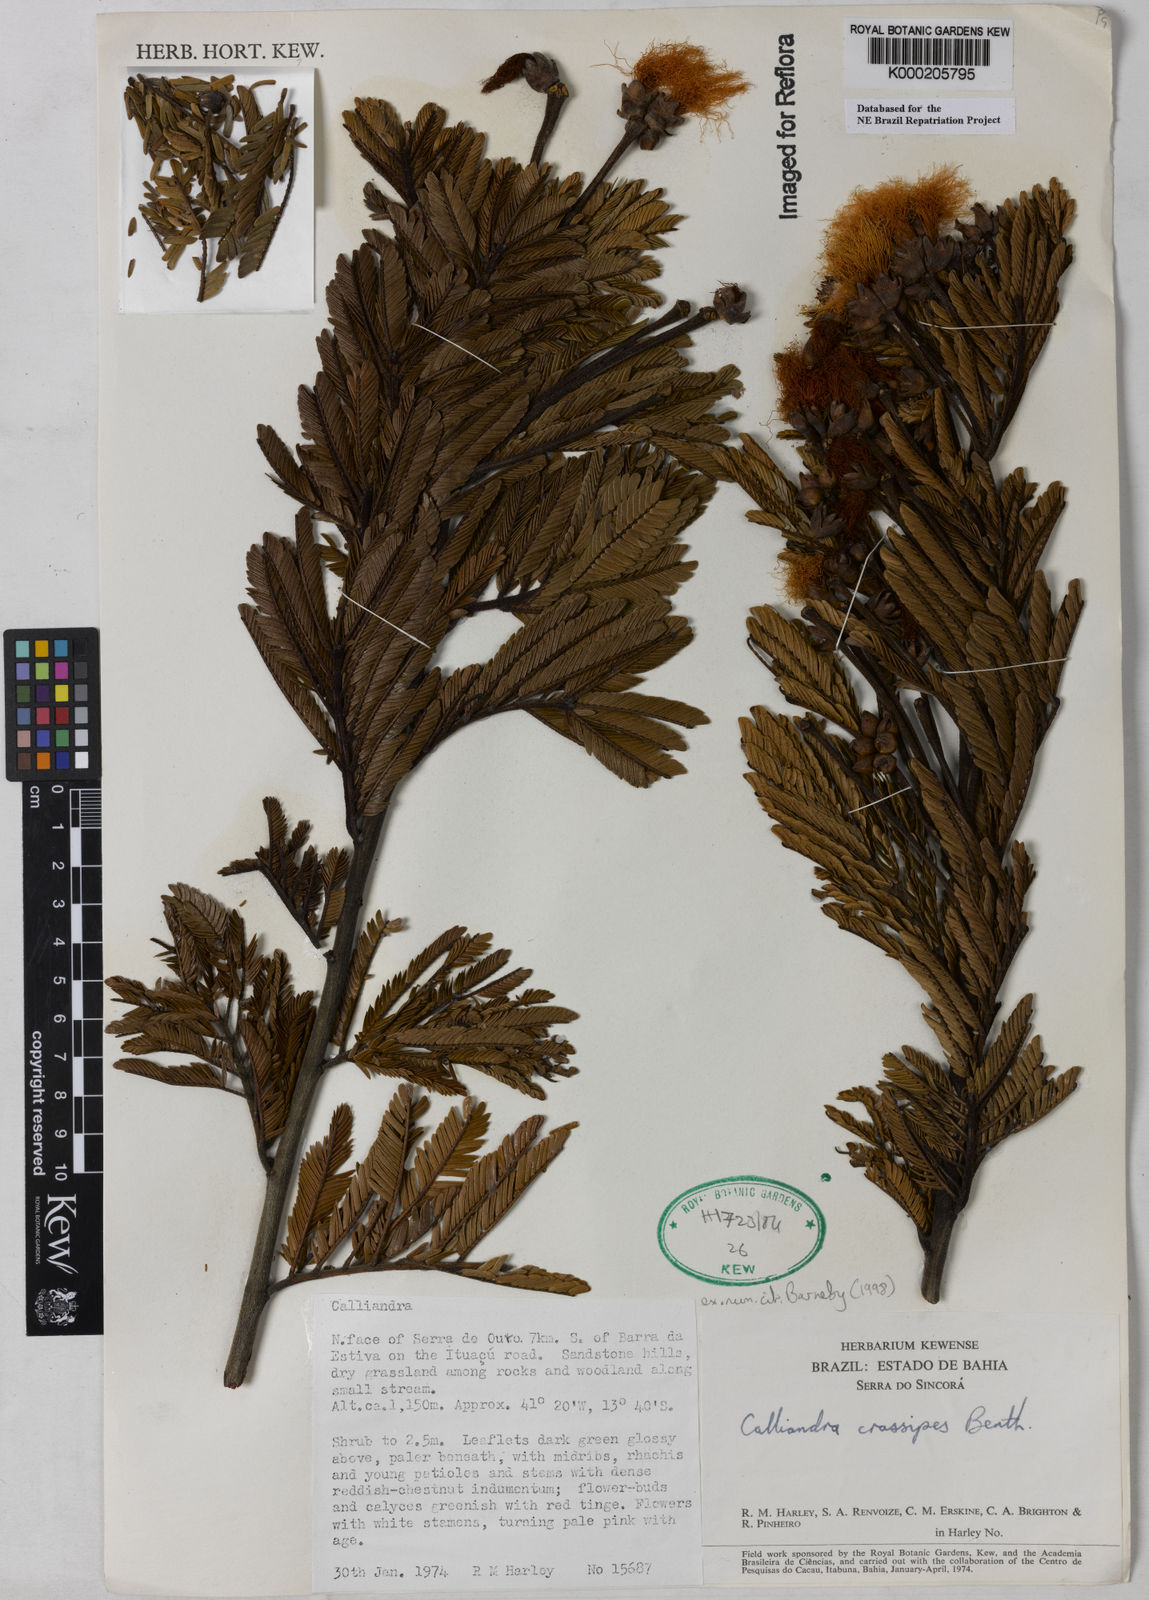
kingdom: Plantae
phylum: Tracheophyta
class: Magnoliopsida
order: Fabales
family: Fabaceae
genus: Calliandra
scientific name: Calliandra crassipes
